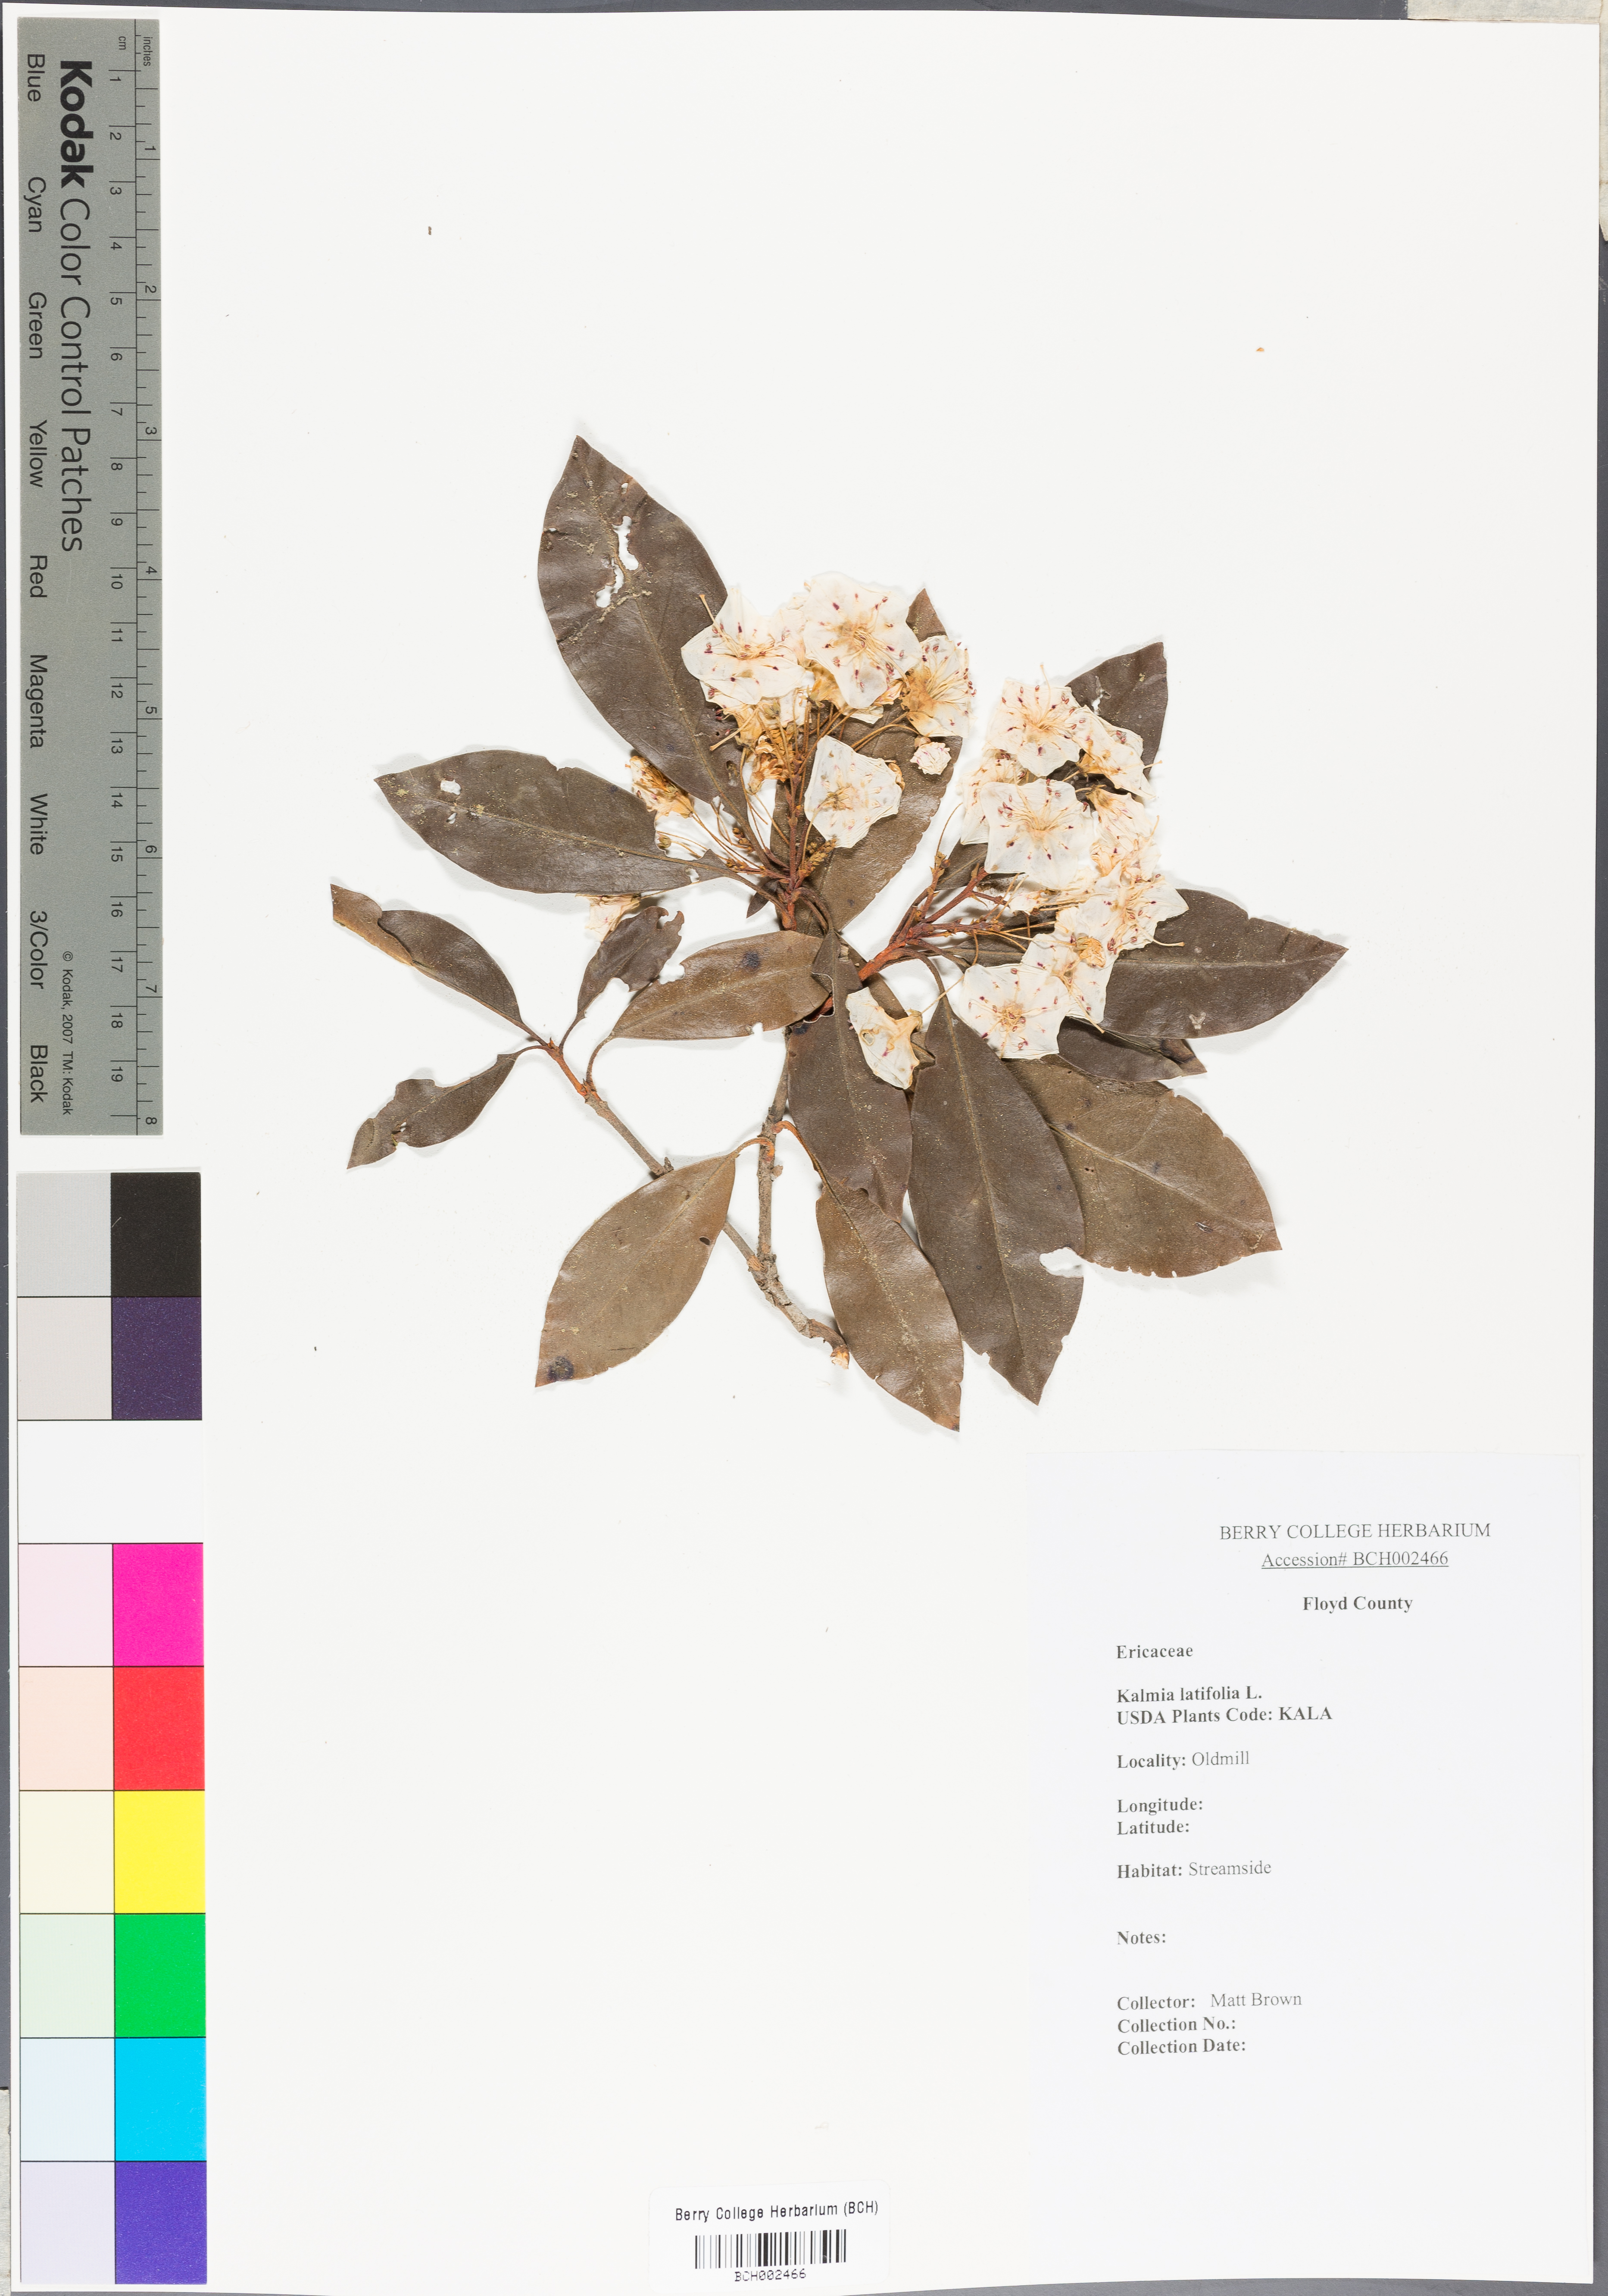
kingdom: Plantae
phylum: Tracheophyta
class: Magnoliopsida
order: Ericales
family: Ericaceae
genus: Kalmia
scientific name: Kalmia latifolia
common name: Mountain-laurel
